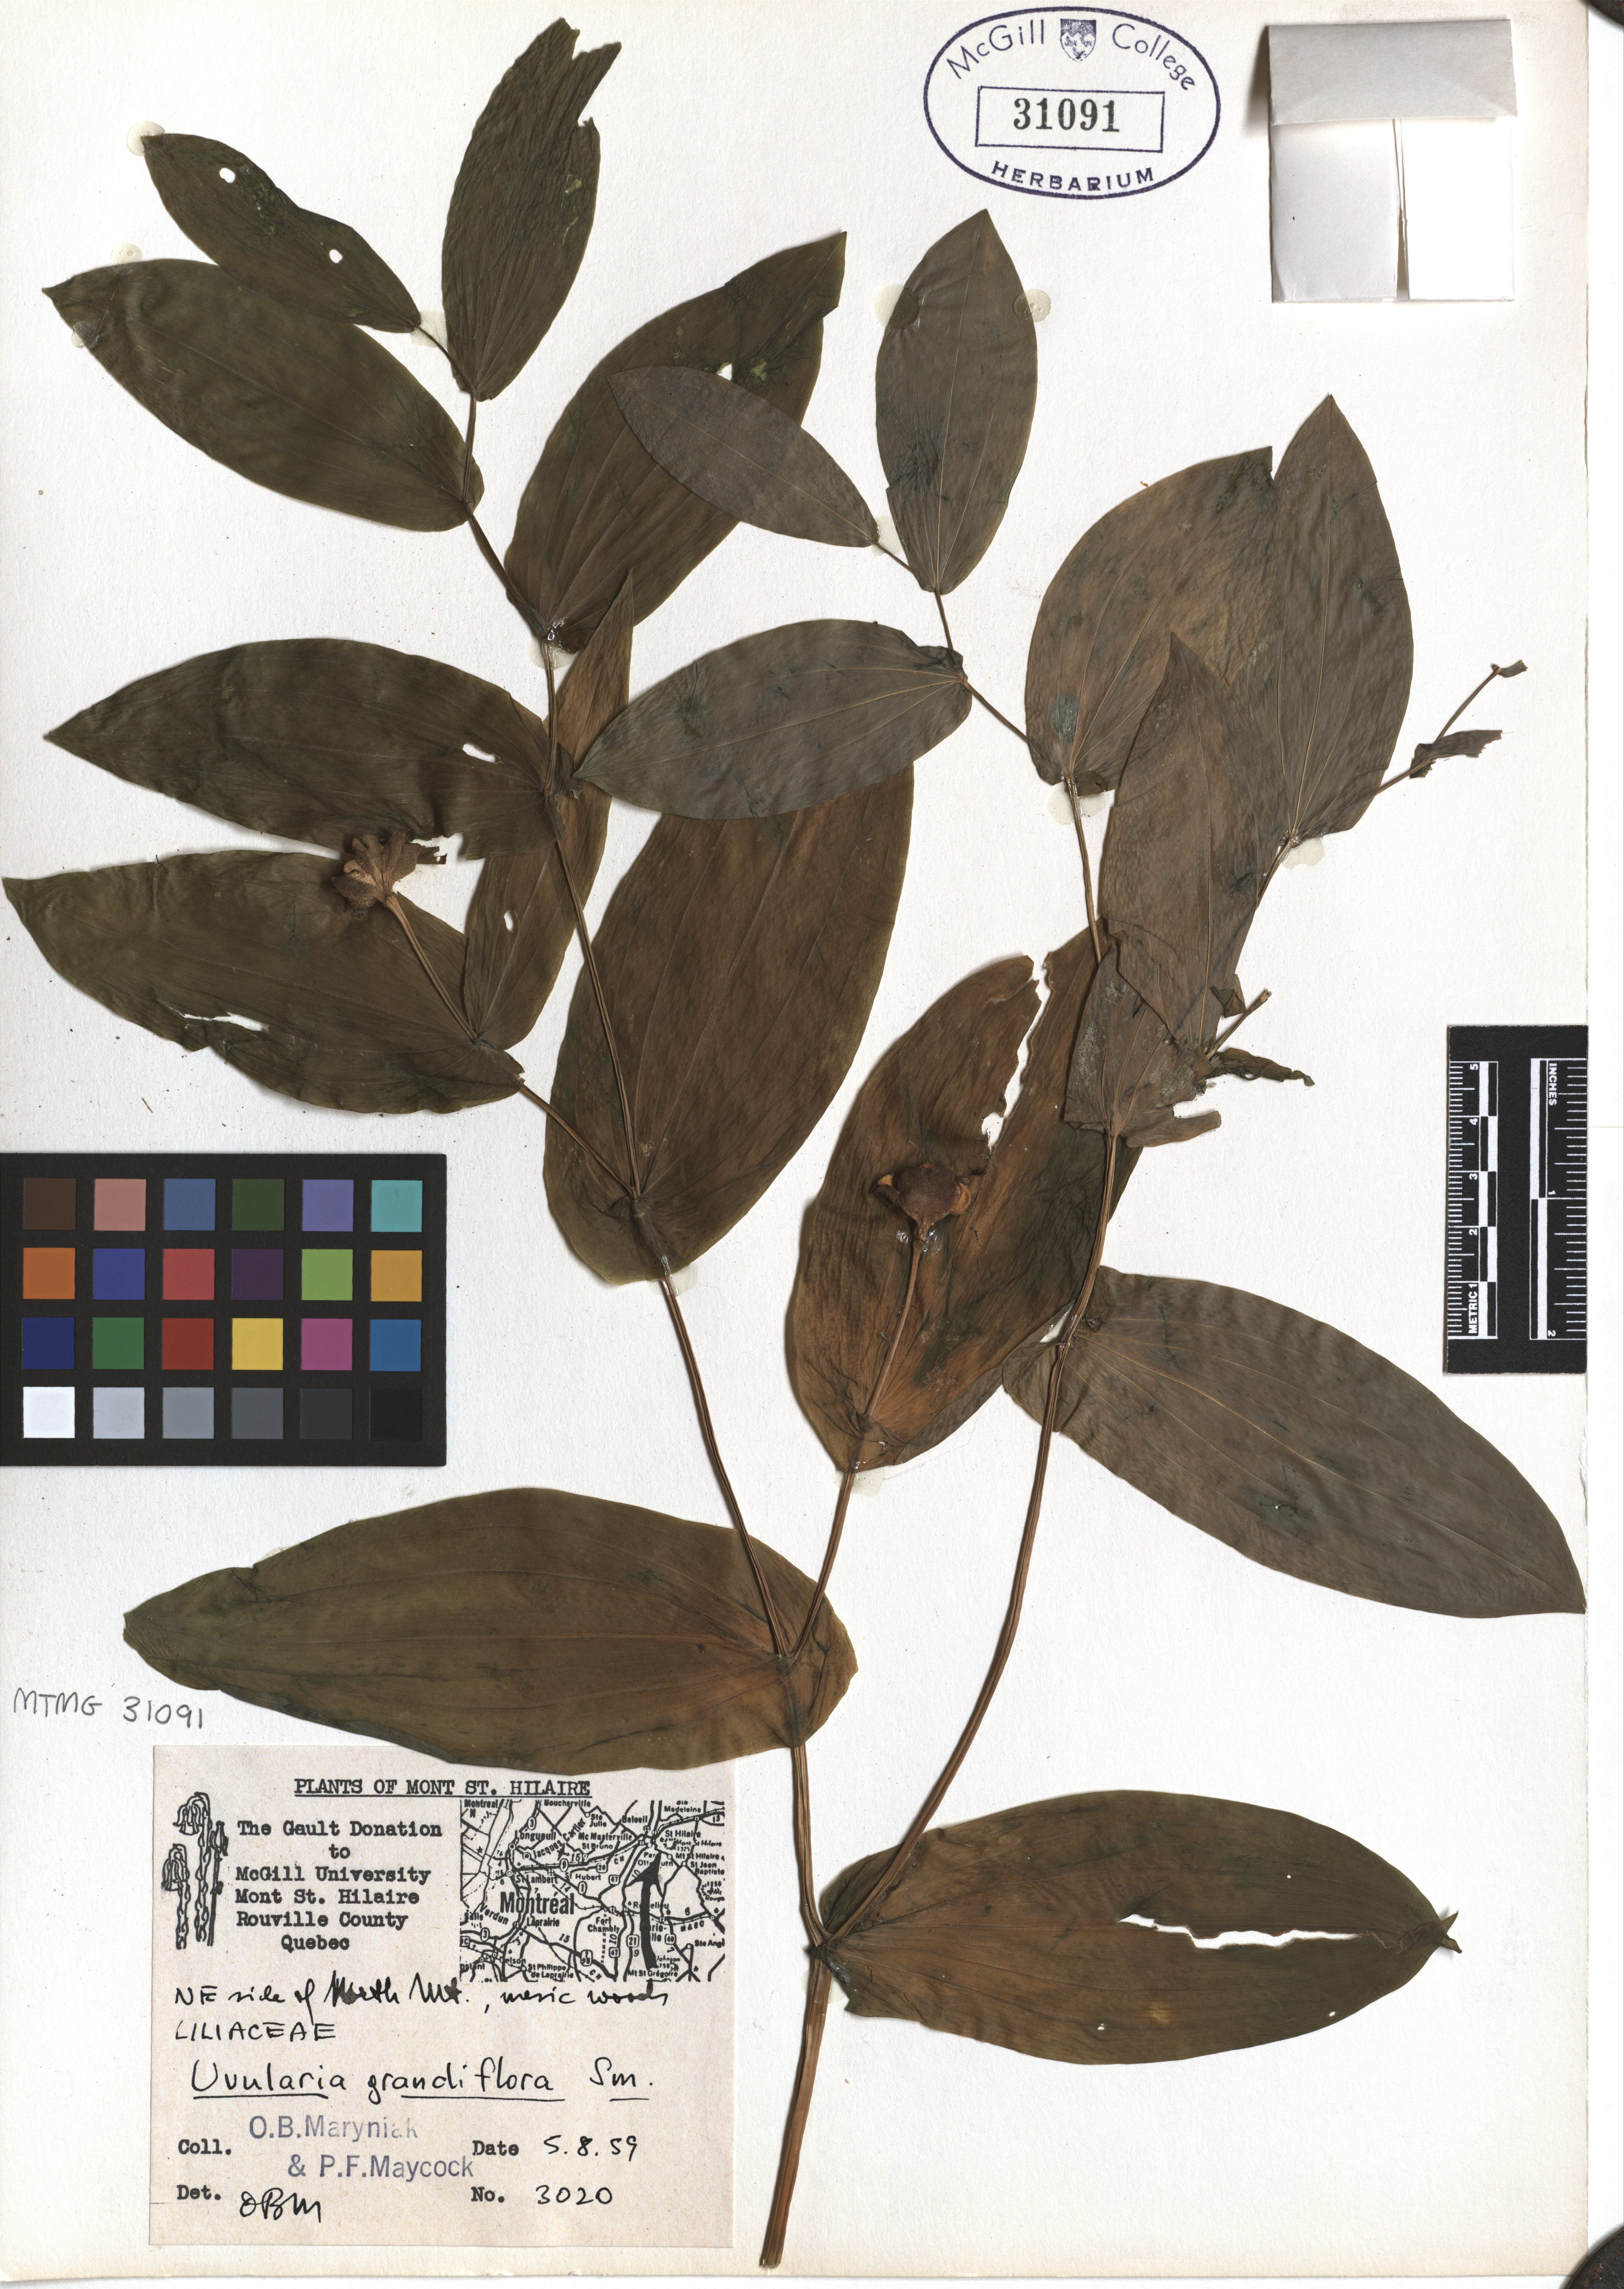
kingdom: Plantae
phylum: Tracheophyta
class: Liliopsida
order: Liliales
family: Colchicaceae
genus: Uvularia
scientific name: Uvularia grandiflora
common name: Bellwort
